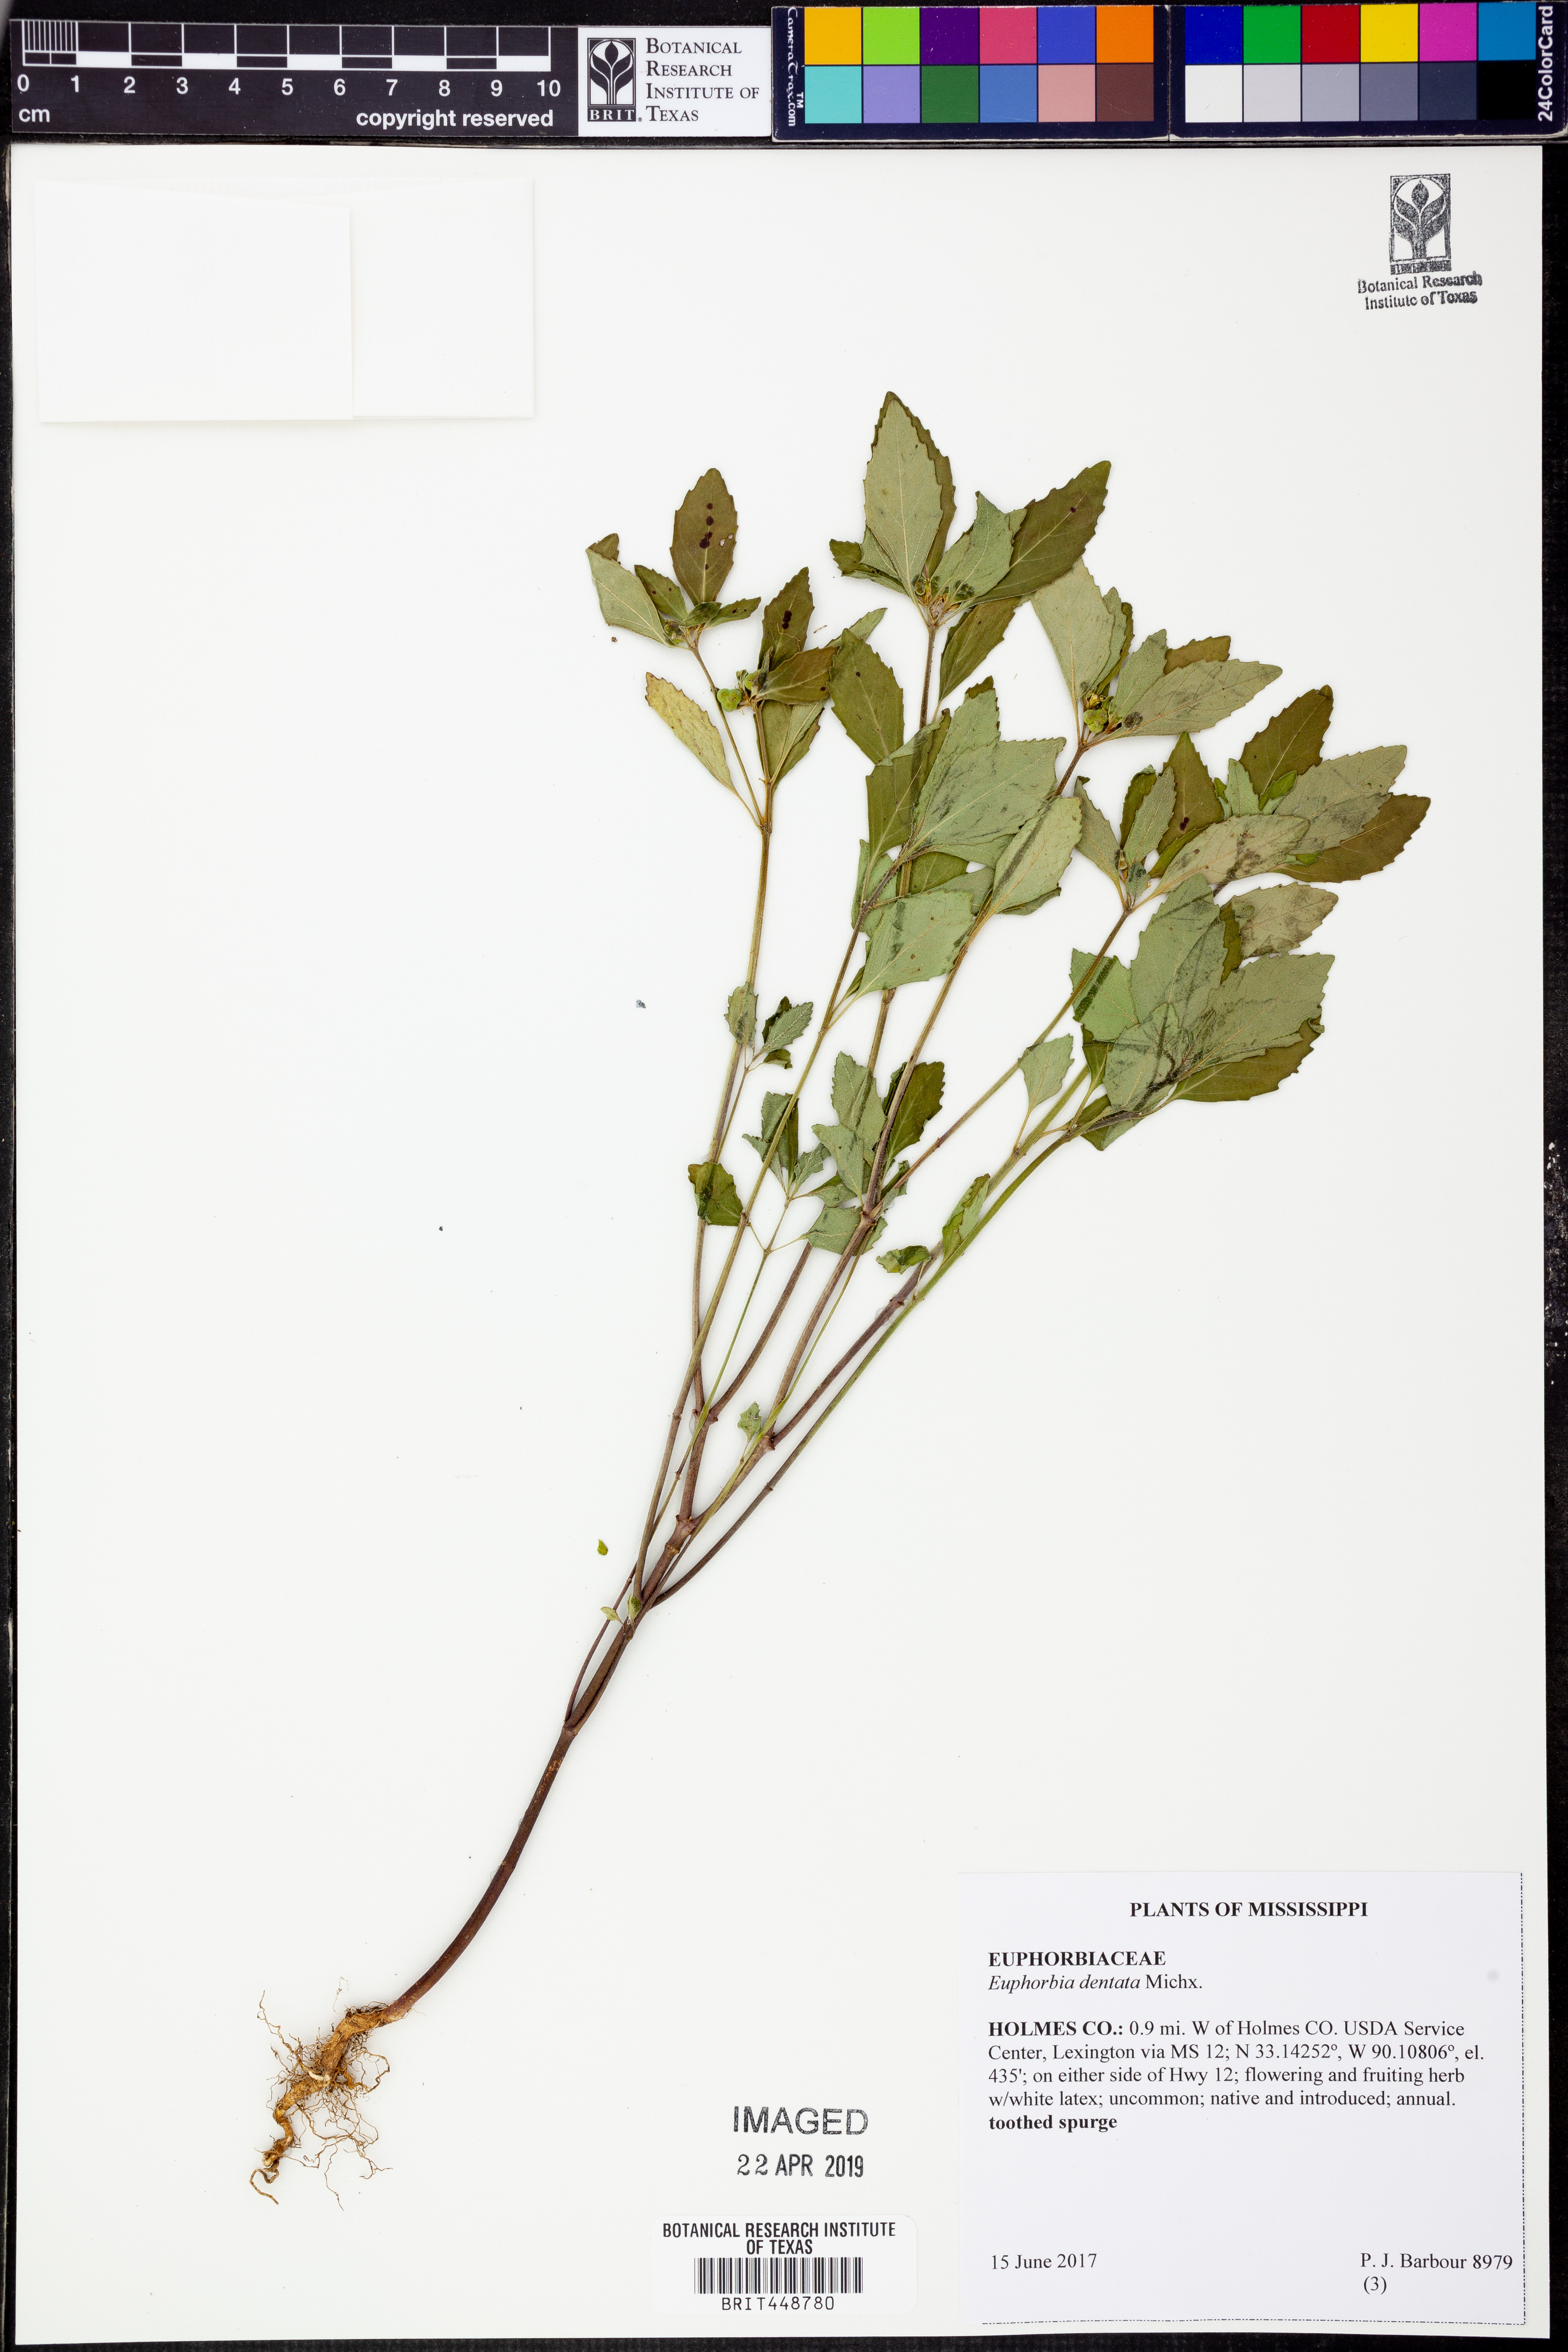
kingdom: Plantae
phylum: Tracheophyta
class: Magnoliopsida
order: Malpighiales
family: Euphorbiaceae
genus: Euphorbia
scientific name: Euphorbia dentata
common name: Dentate spurge
